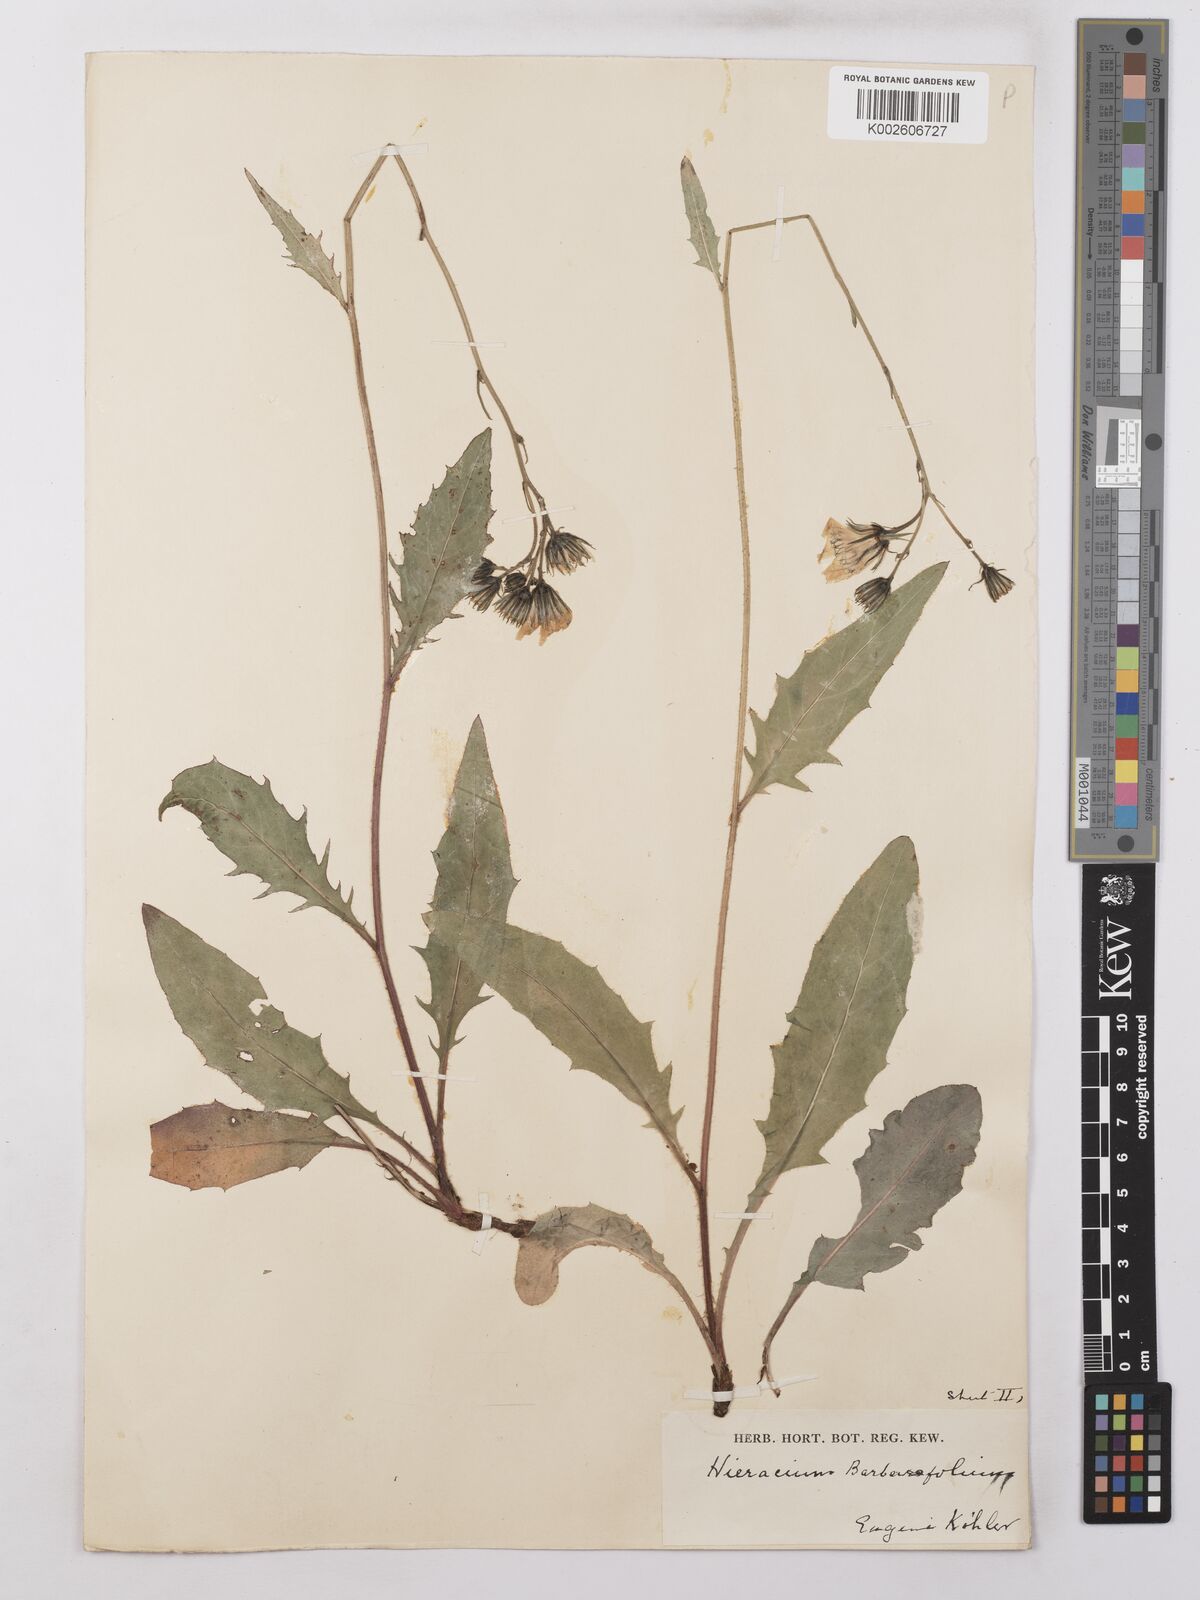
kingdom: Plantae
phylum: Tracheophyta
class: Magnoliopsida
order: Asterales
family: Asteraceae
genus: Hieracium
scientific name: Hieracium lachenalii
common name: Common hawkweed
